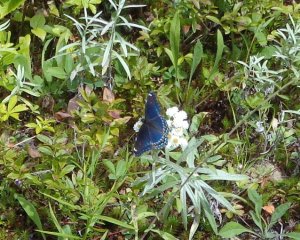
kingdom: Animalia
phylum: Arthropoda
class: Insecta
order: Lepidoptera
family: Nymphalidae
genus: Limenitis
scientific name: Limenitis
